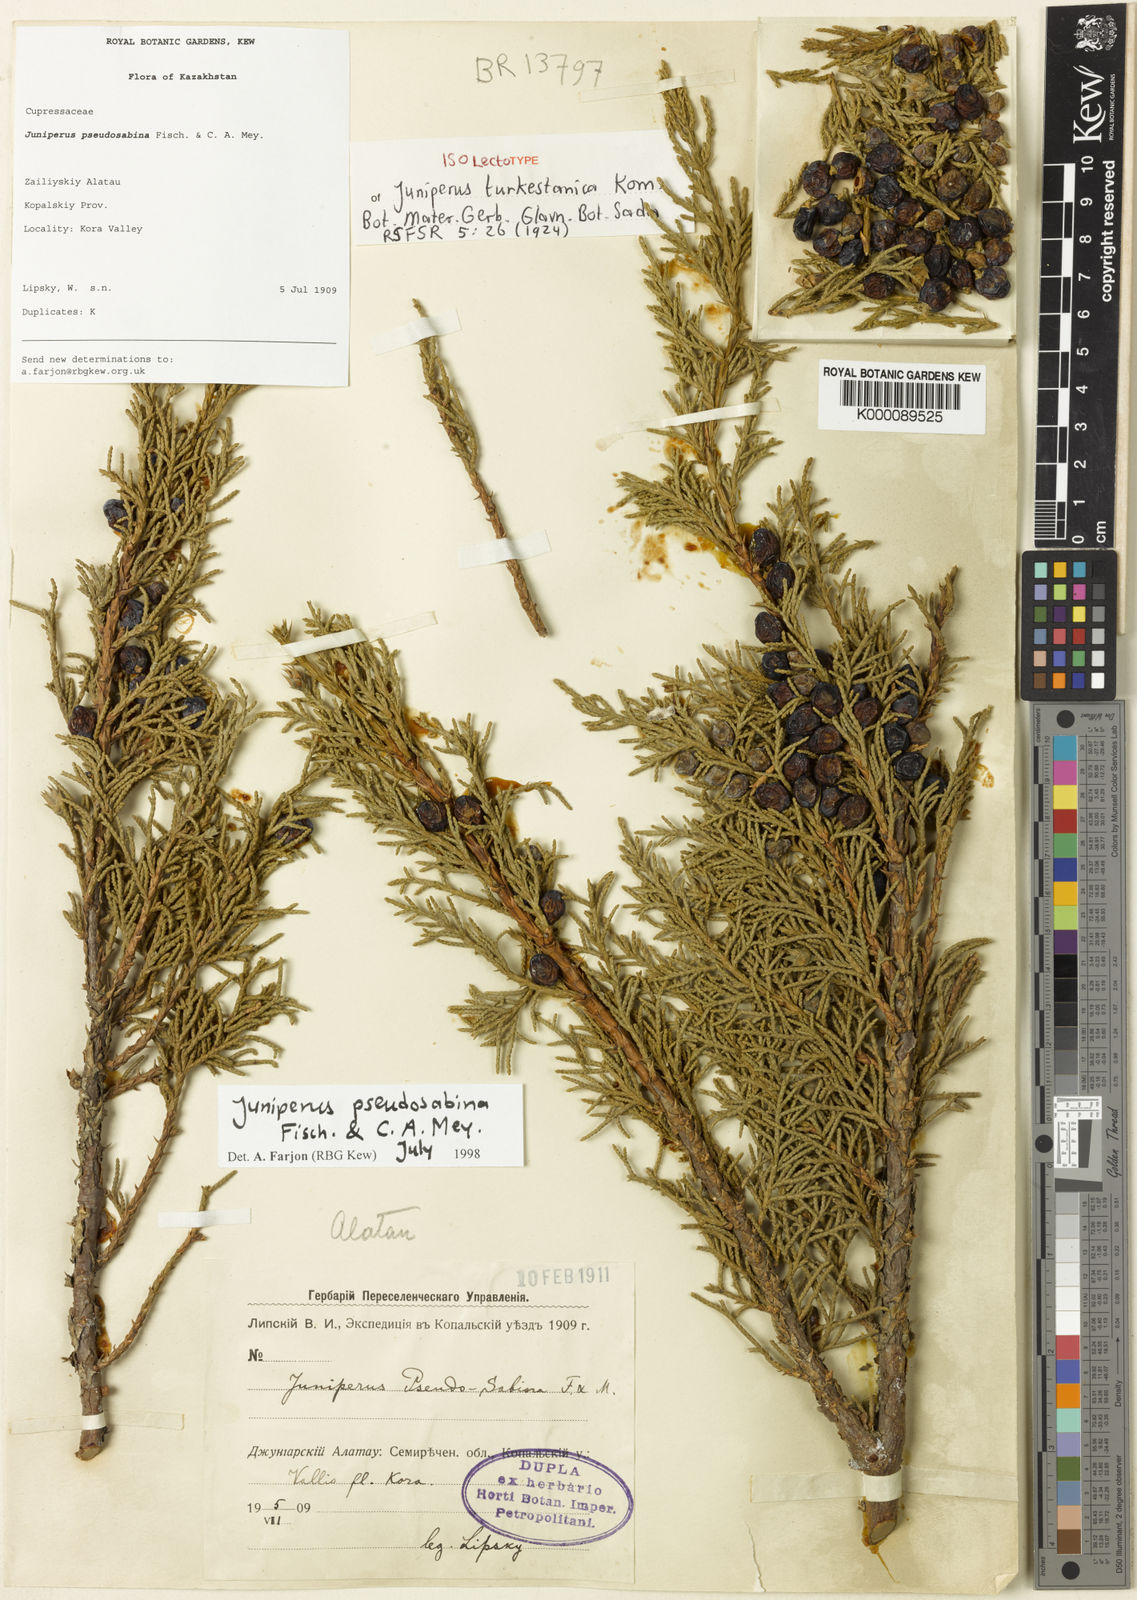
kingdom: Plantae
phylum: Tracheophyta
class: Pinopsida
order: Pinales
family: Cupressaceae
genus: Juniperus
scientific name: Juniperus pseudosabina
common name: Turkestan juniper
